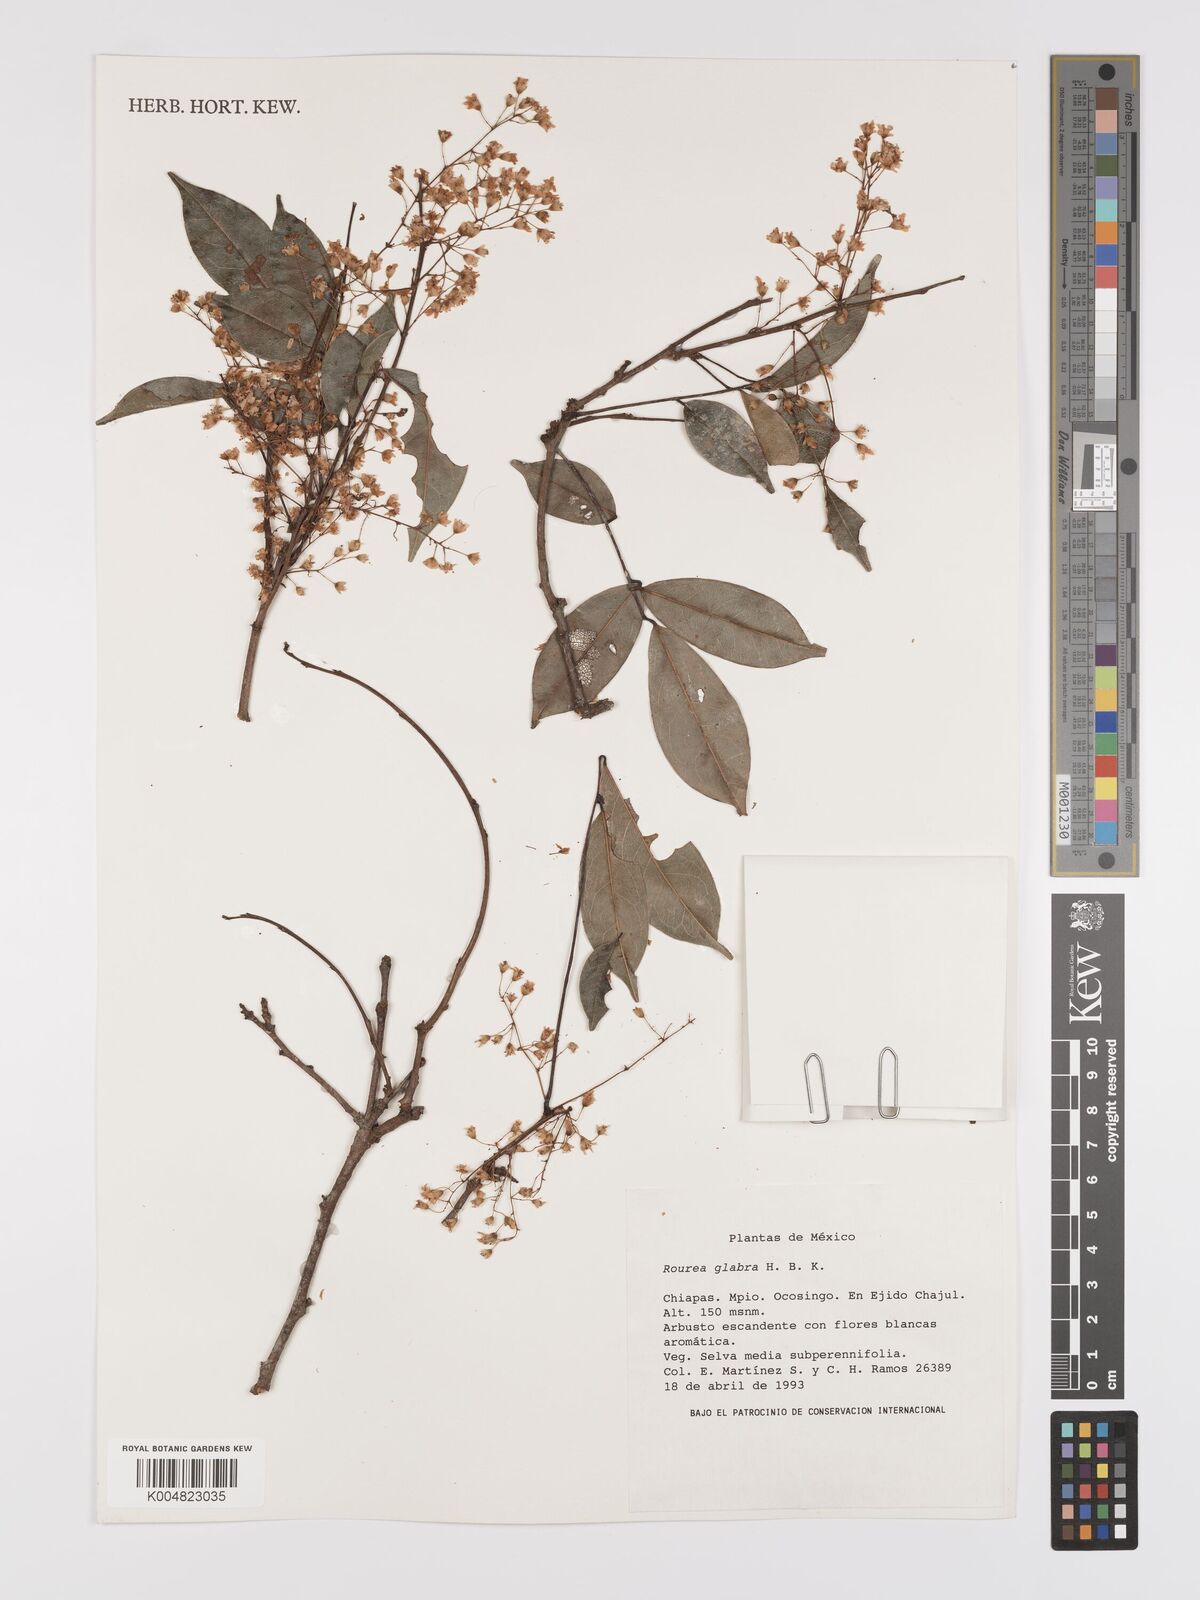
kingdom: Plantae
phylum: Tracheophyta
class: Magnoliopsida
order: Oxalidales
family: Connaraceae
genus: Rourea
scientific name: Rourea glabra
